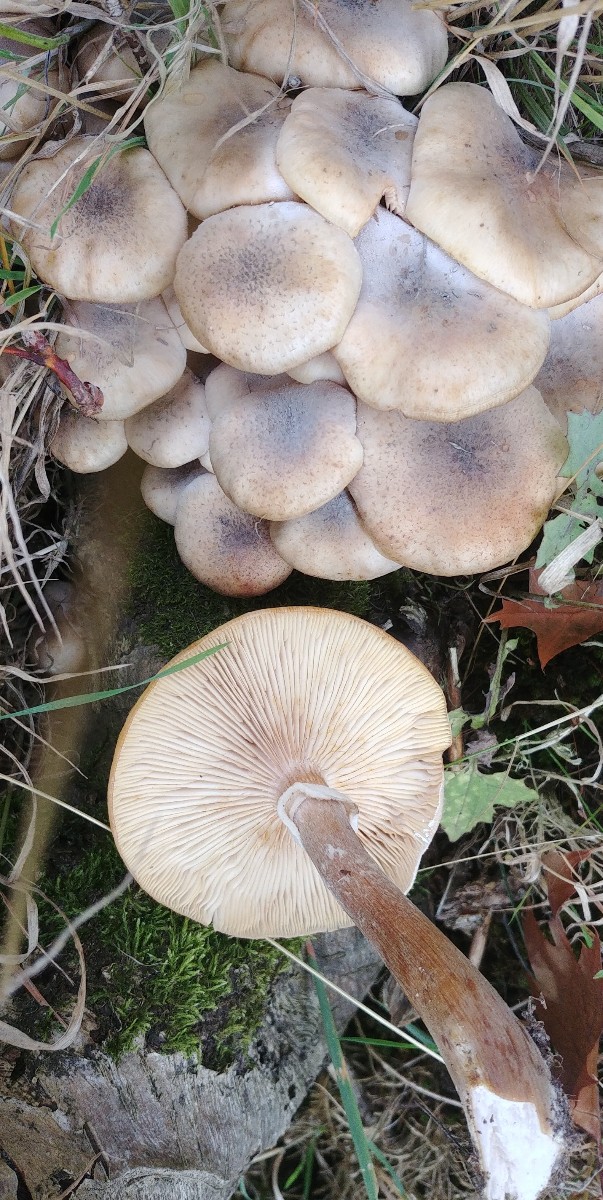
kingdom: Fungi
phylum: Basidiomycota
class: Agaricomycetes
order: Agaricales
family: Physalacriaceae
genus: Armillaria
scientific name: Armillaria
